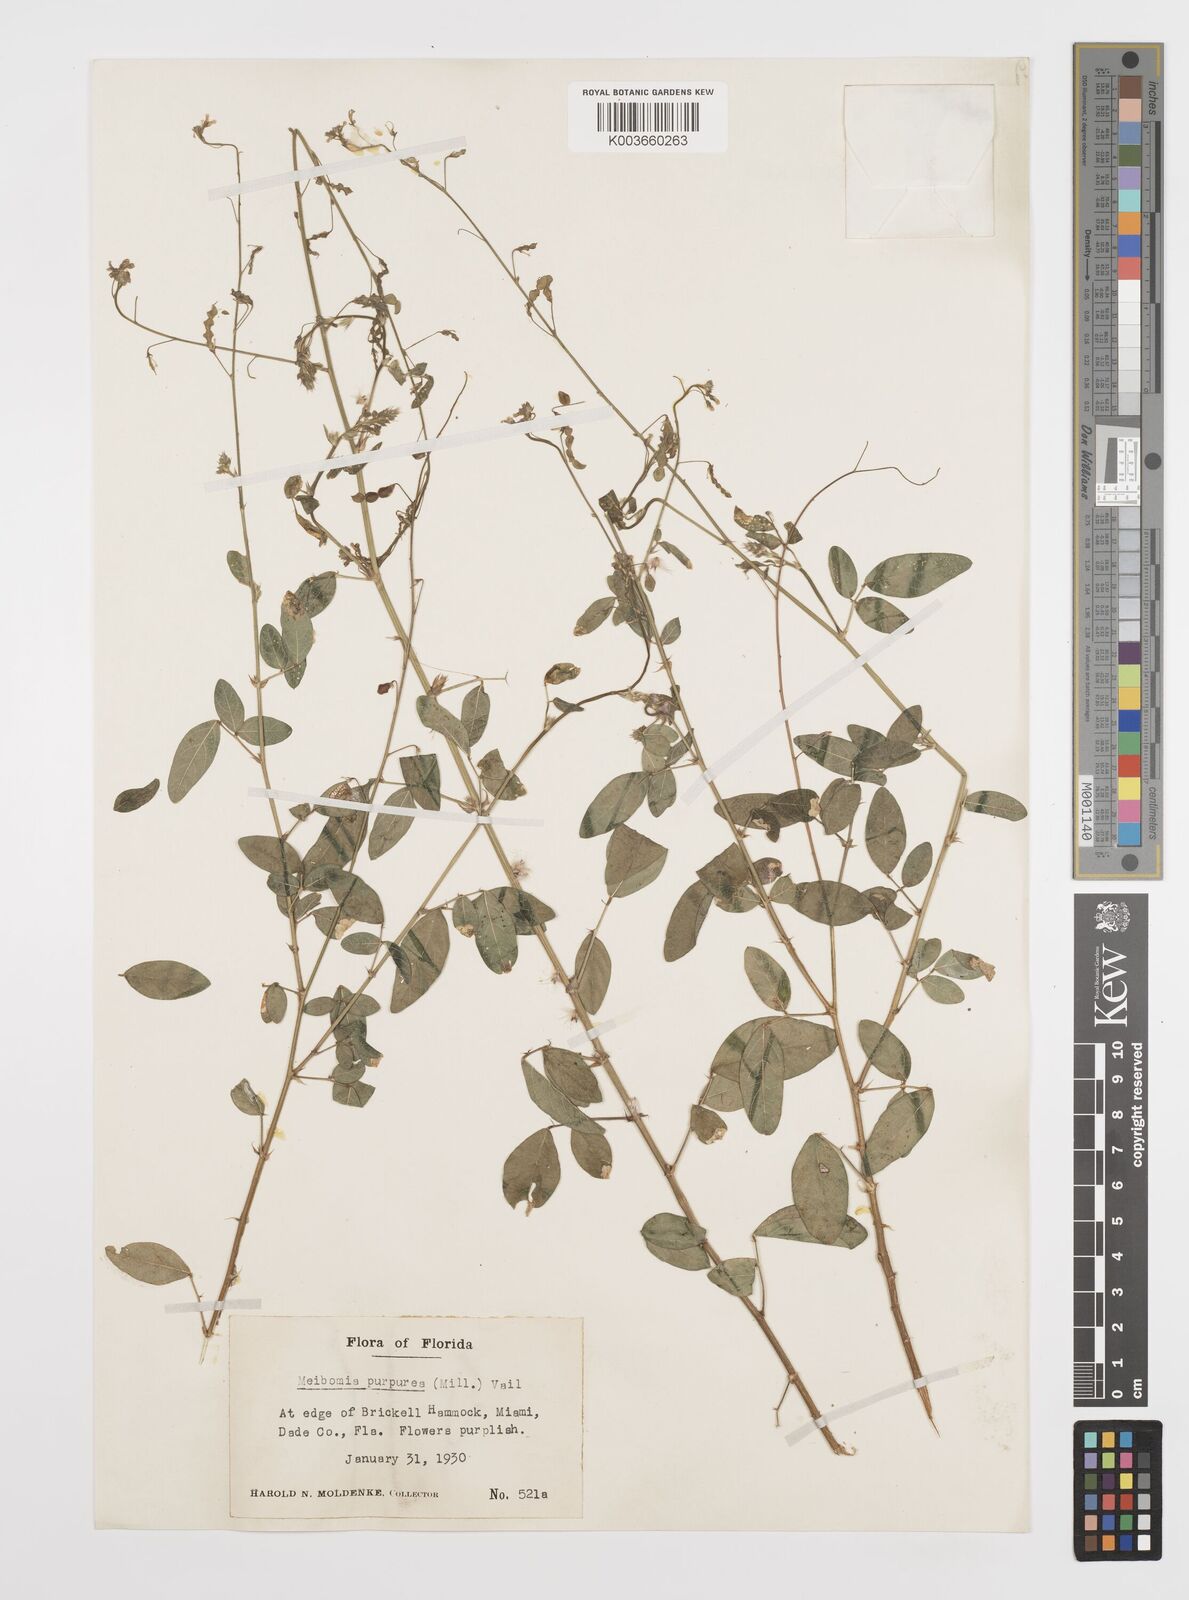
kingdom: Plantae
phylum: Tracheophyta
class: Magnoliopsida
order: Fabales
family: Fabaceae
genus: Desmodium
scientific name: Desmodium tortuosum
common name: Dixie ticktrefoil
